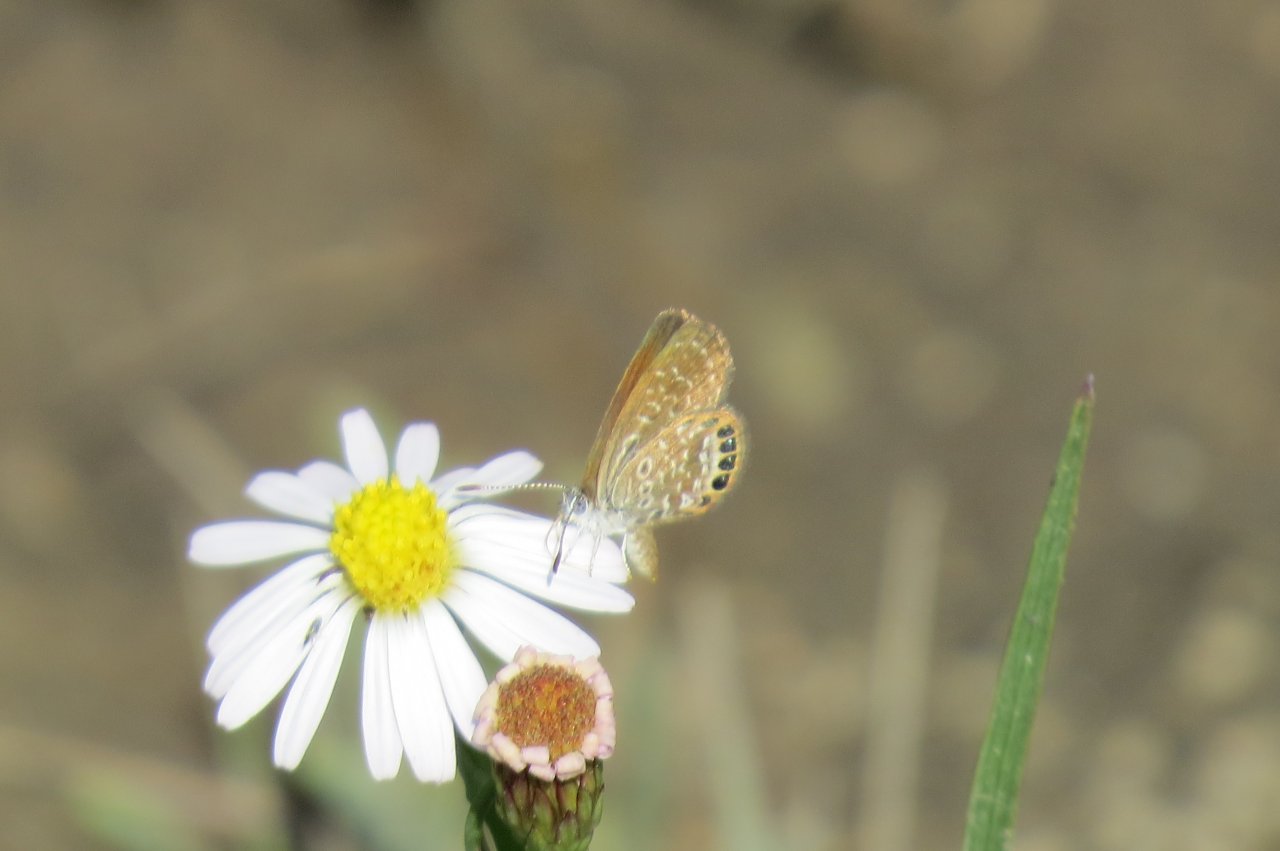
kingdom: Animalia
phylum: Arthropoda
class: Insecta
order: Lepidoptera
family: Lycaenidae
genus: Brephidium
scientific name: Brephidium isophthalma
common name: Eastern Pygmy-Blue
